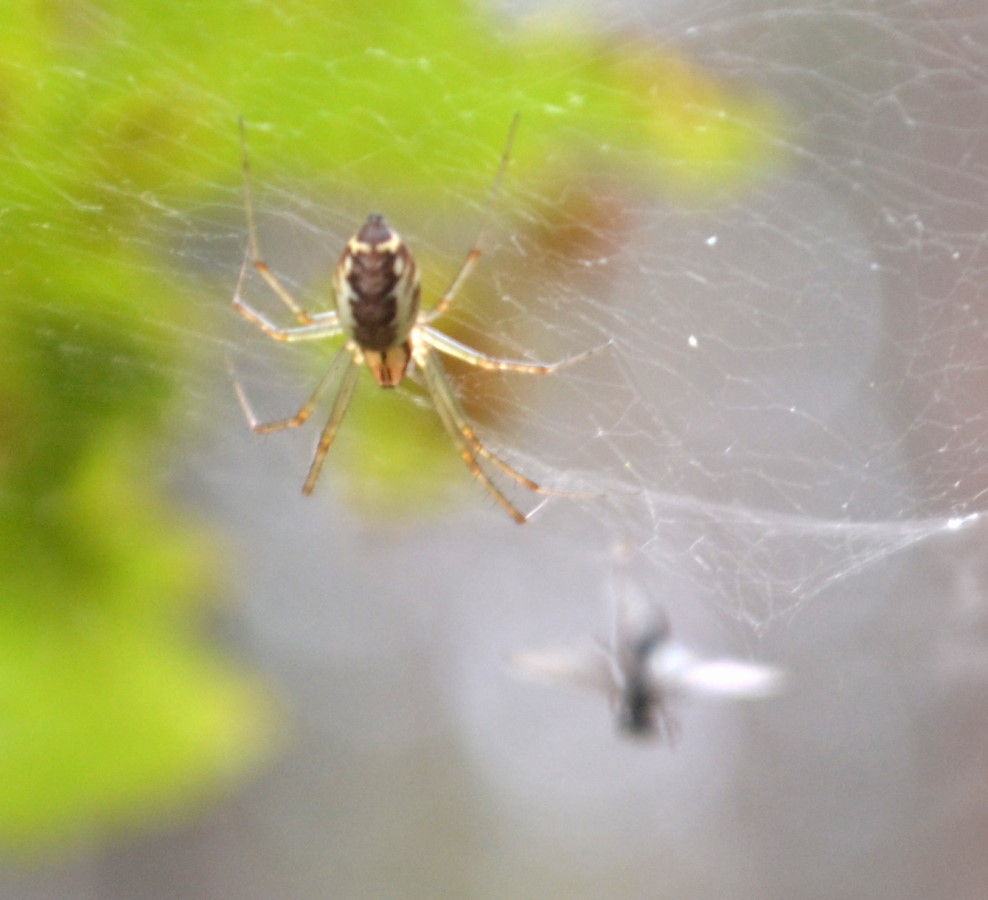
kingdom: Animalia
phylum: Arthropoda
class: Arachnida
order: Araneae
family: Linyphiidae
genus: Linyphia
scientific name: Linyphia triangularis
